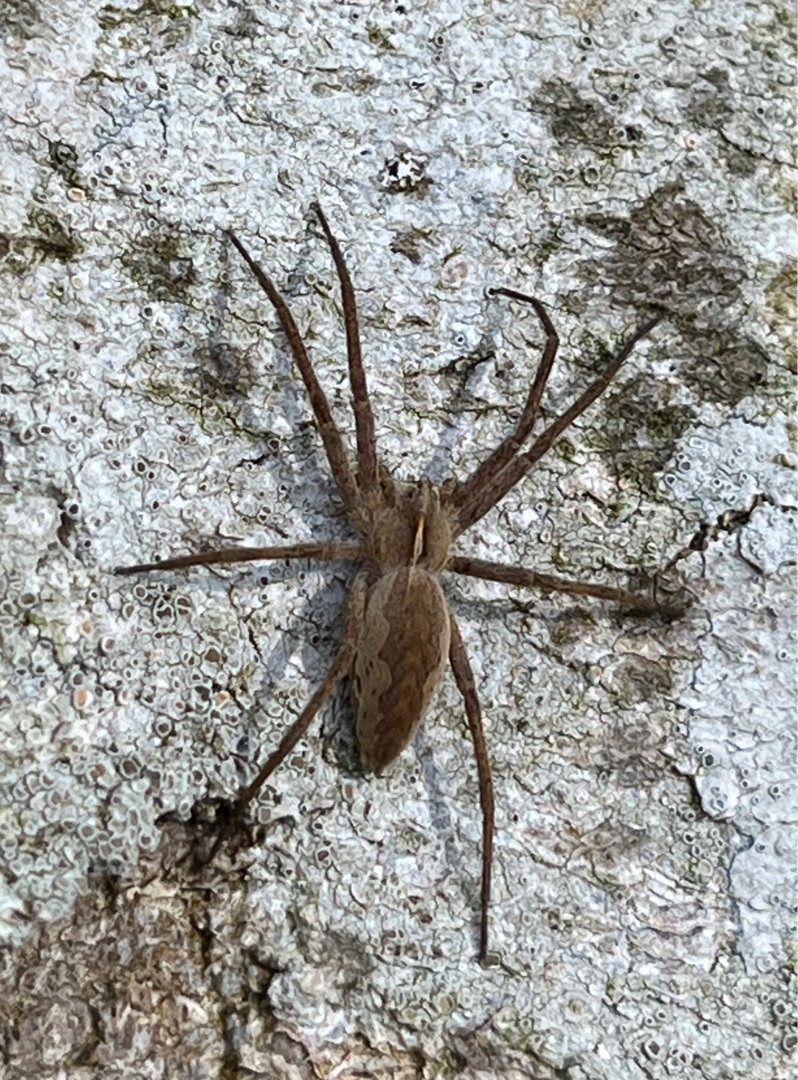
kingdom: Animalia
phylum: Arthropoda
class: Arachnida
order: Araneae
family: Pisauridae
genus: Pisaura
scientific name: Pisaura mirabilis
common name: Almindelig rovedderkop
